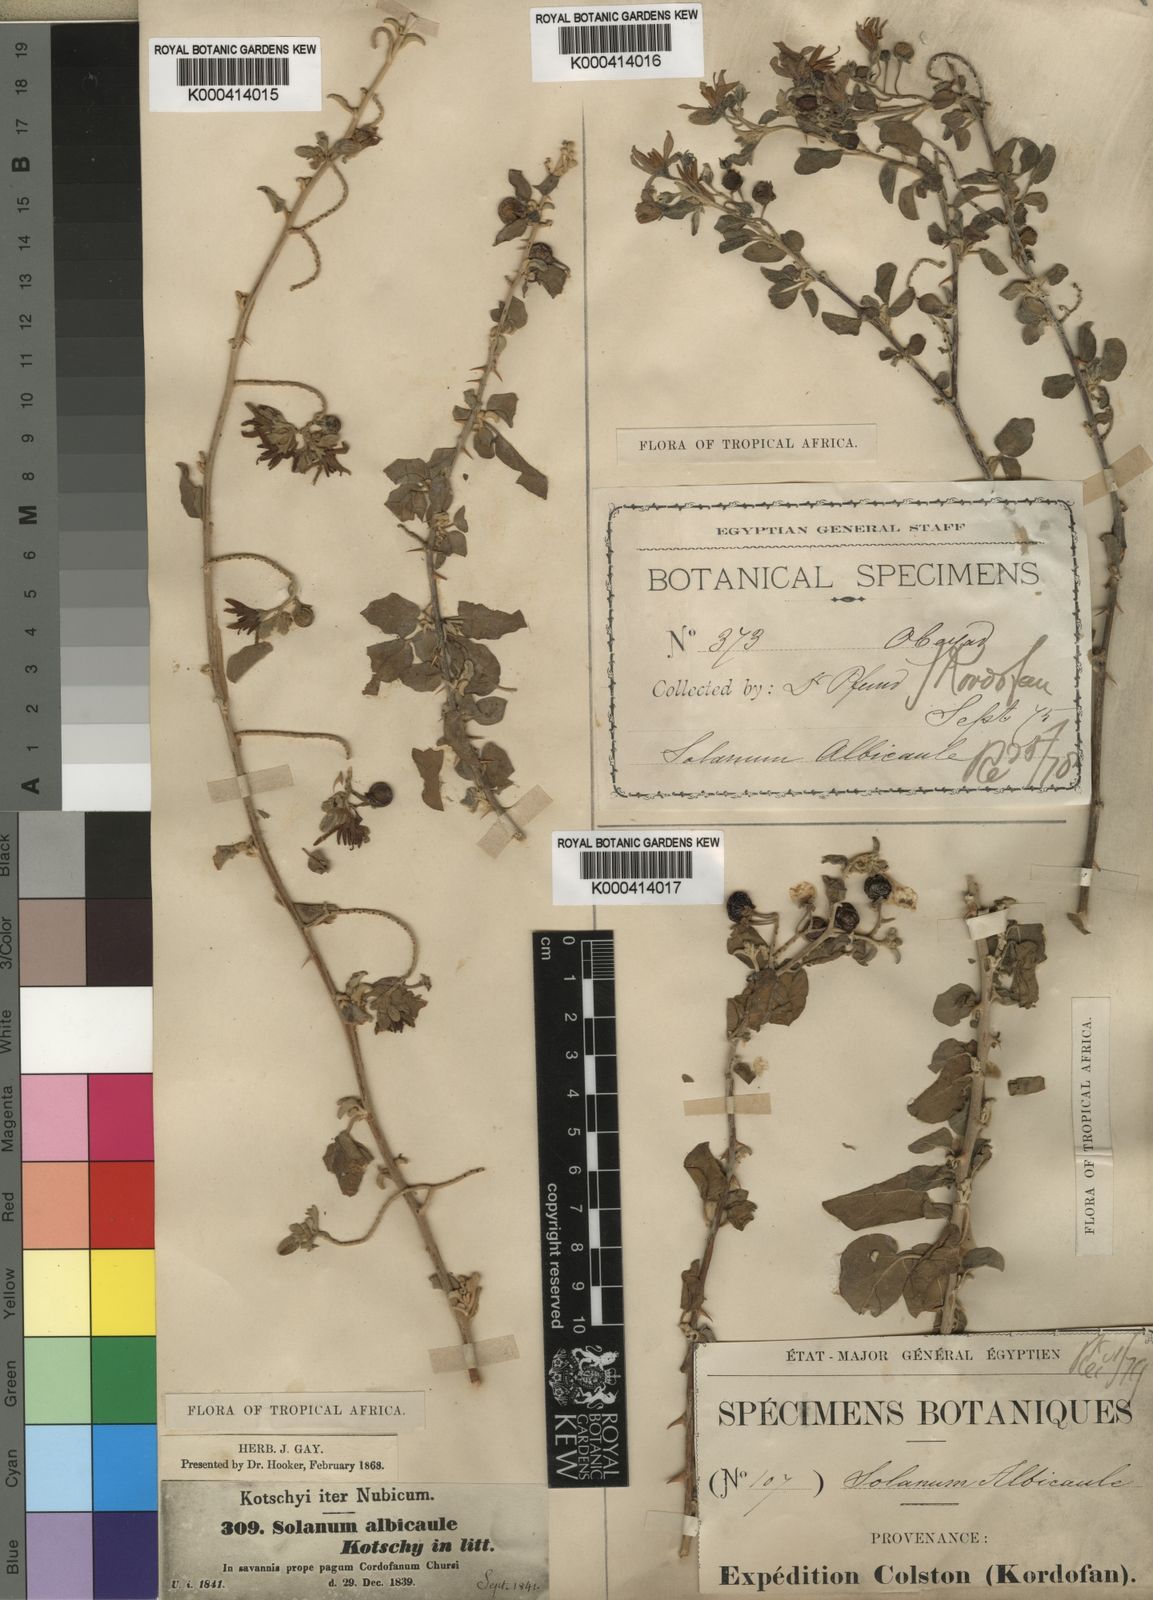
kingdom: Plantae
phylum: Tracheophyta
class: Magnoliopsida
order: Solanales
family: Solanaceae
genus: Solanum
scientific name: Solanum forsskaolii
